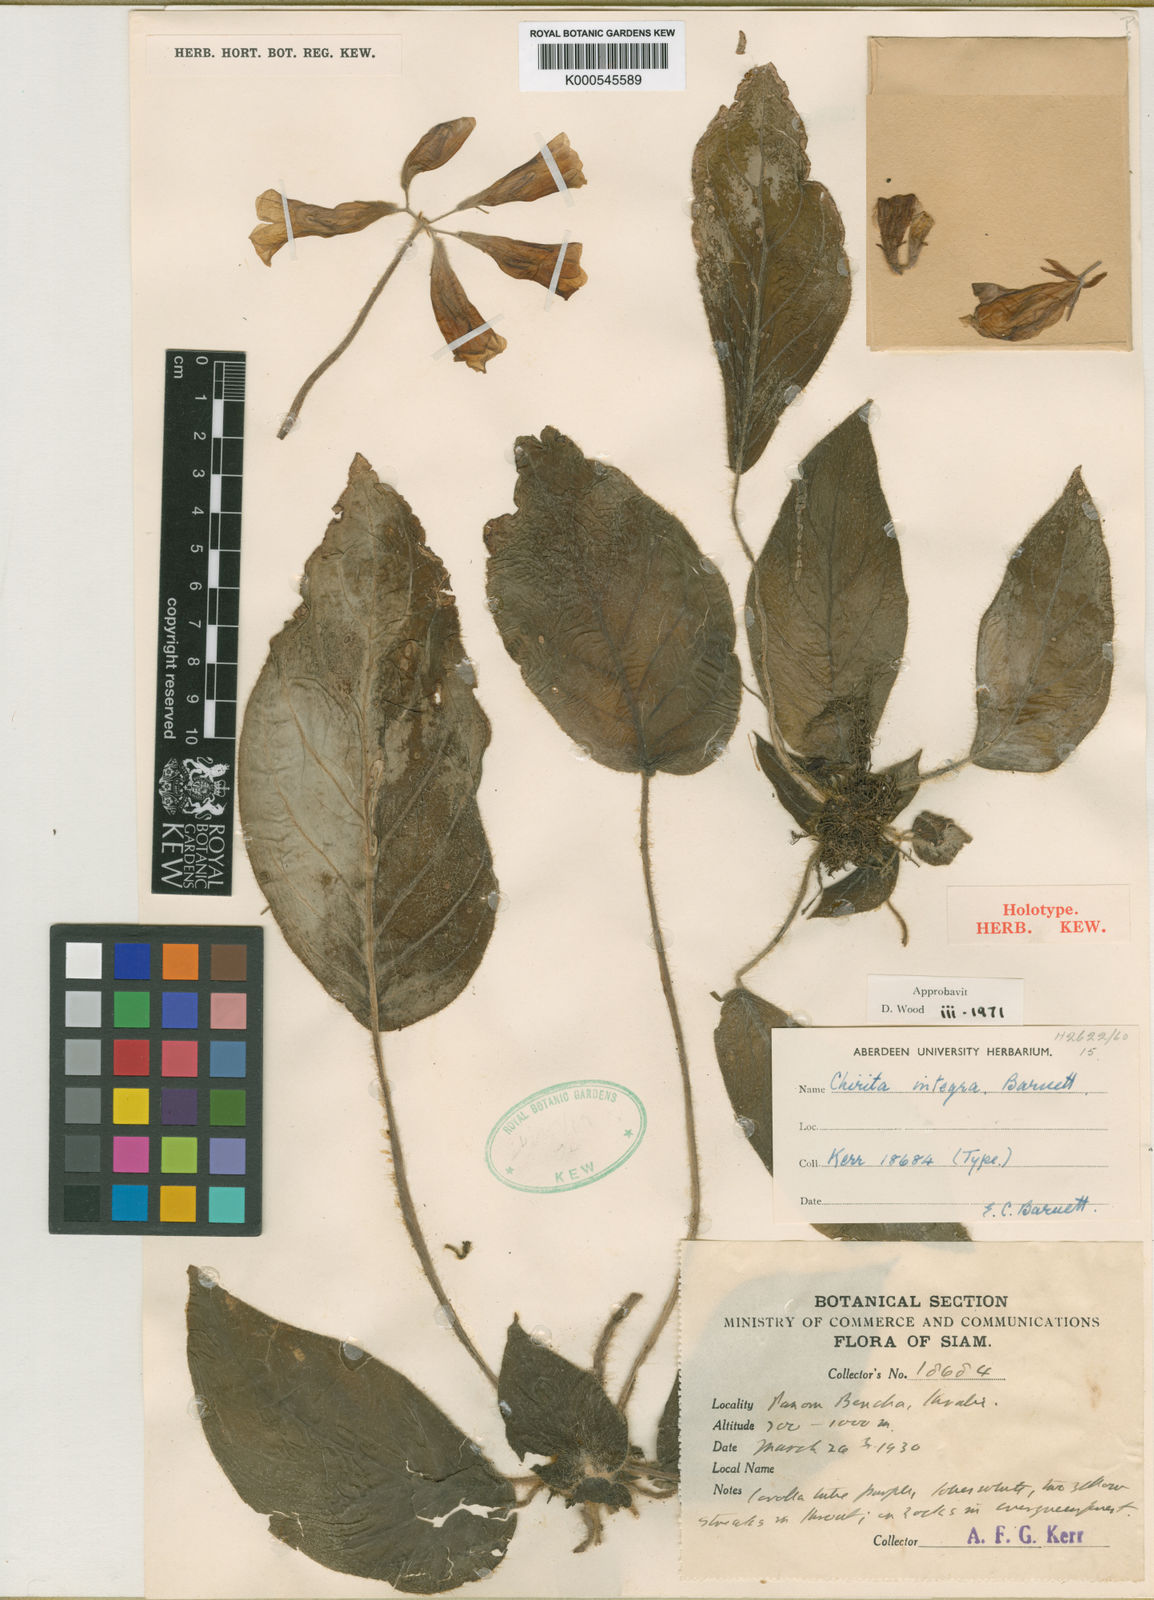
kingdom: Plantae
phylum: Tracheophyta
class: Magnoliopsida
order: Lamiales
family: Gesneriaceae
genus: Damrongia
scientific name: Damrongia integra
